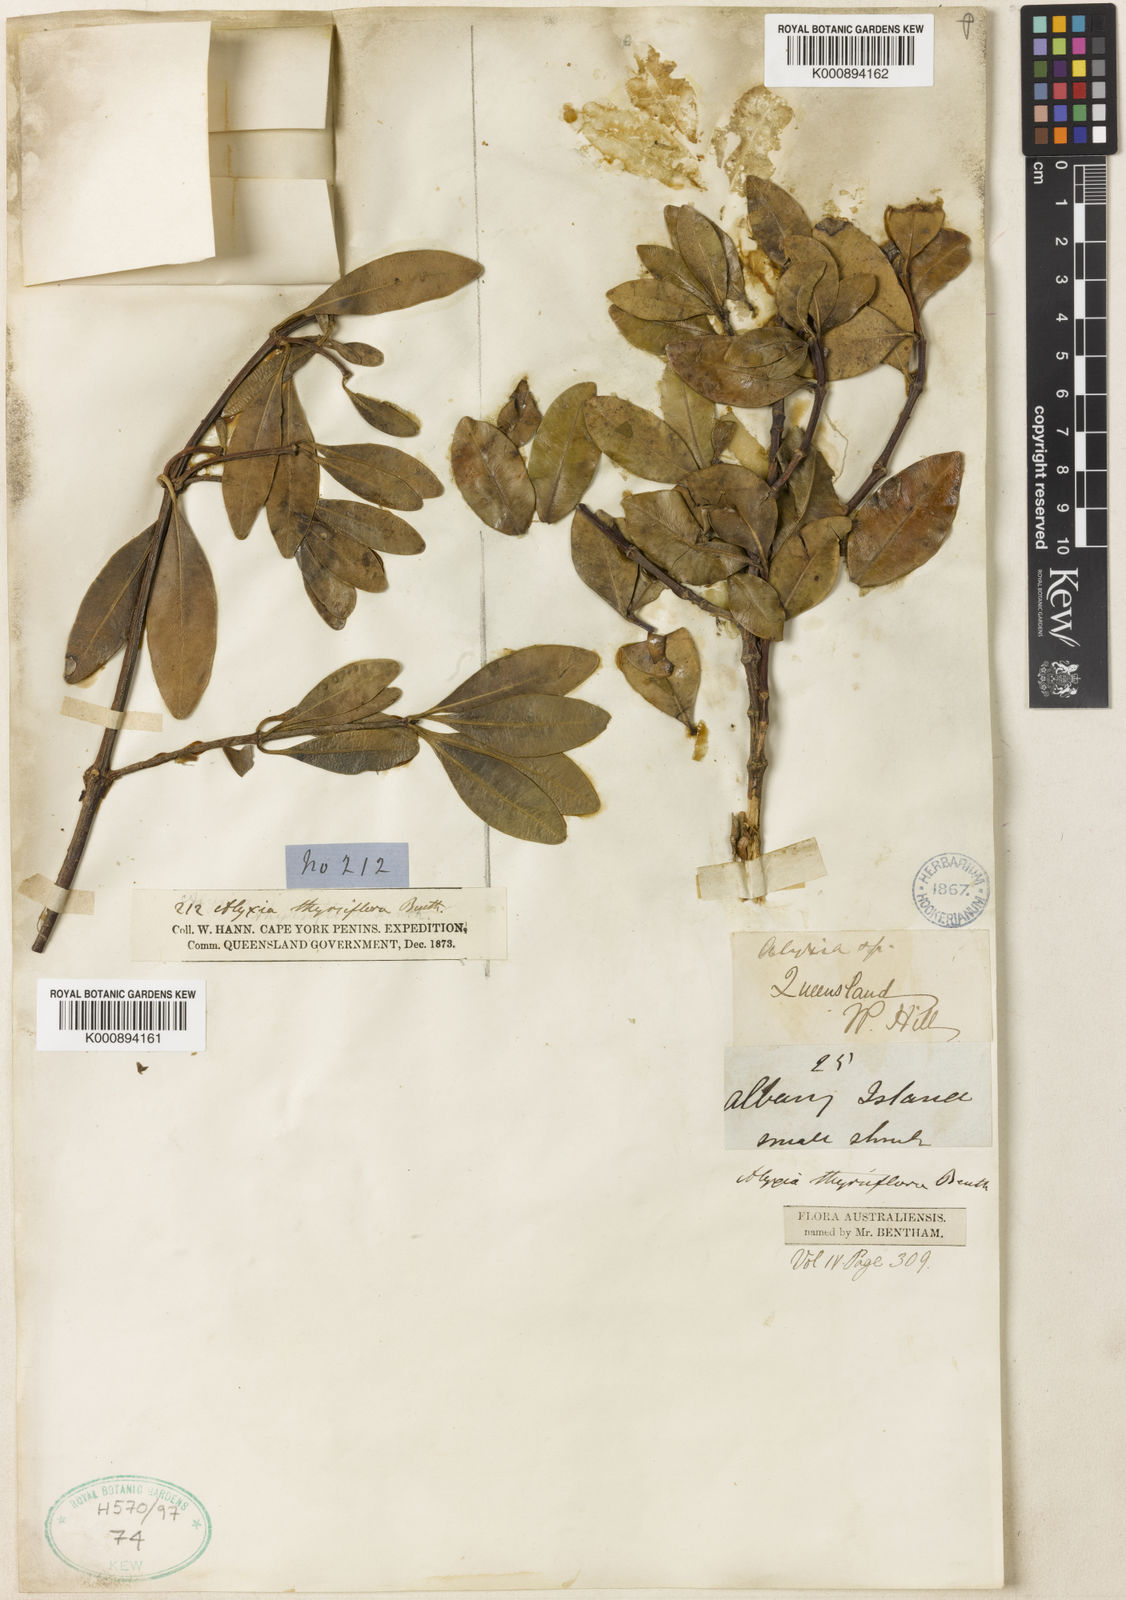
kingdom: Plantae
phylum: Tracheophyta
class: Magnoliopsida
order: Gentianales
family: Apocynaceae
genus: Alyxia
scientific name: Alyxia spicata
